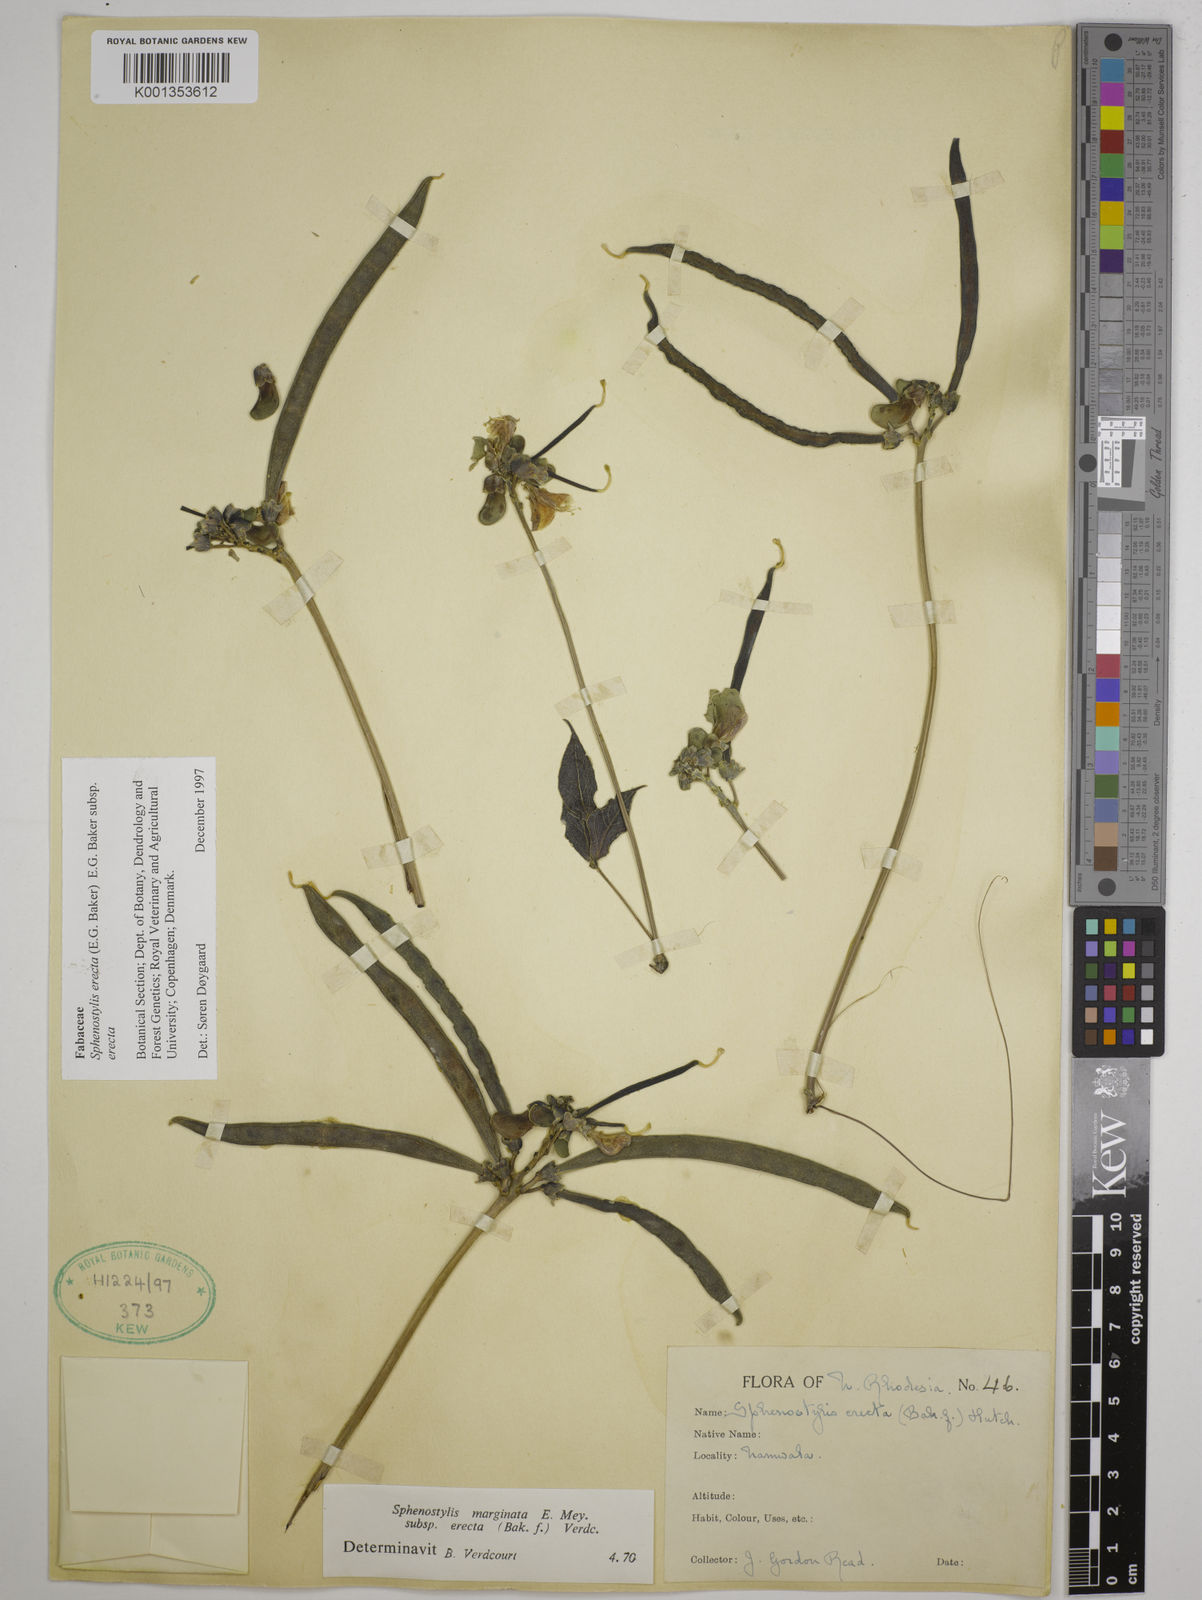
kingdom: Plantae
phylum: Tracheophyta
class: Magnoliopsida
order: Fabales
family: Fabaceae
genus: Sphenostylis
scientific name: Sphenostylis erecta
